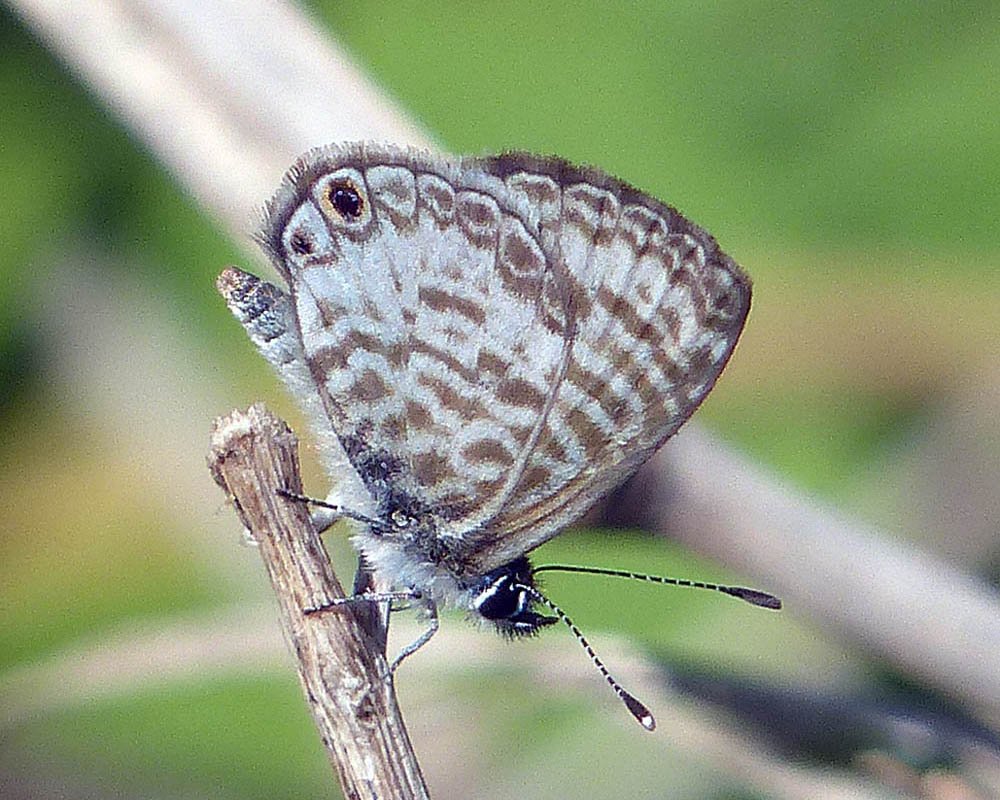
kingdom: Animalia
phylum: Arthropoda
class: Insecta
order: Lepidoptera
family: Lycaenidae
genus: Leptotes
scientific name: Leptotes cassius
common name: Cassius Blue
